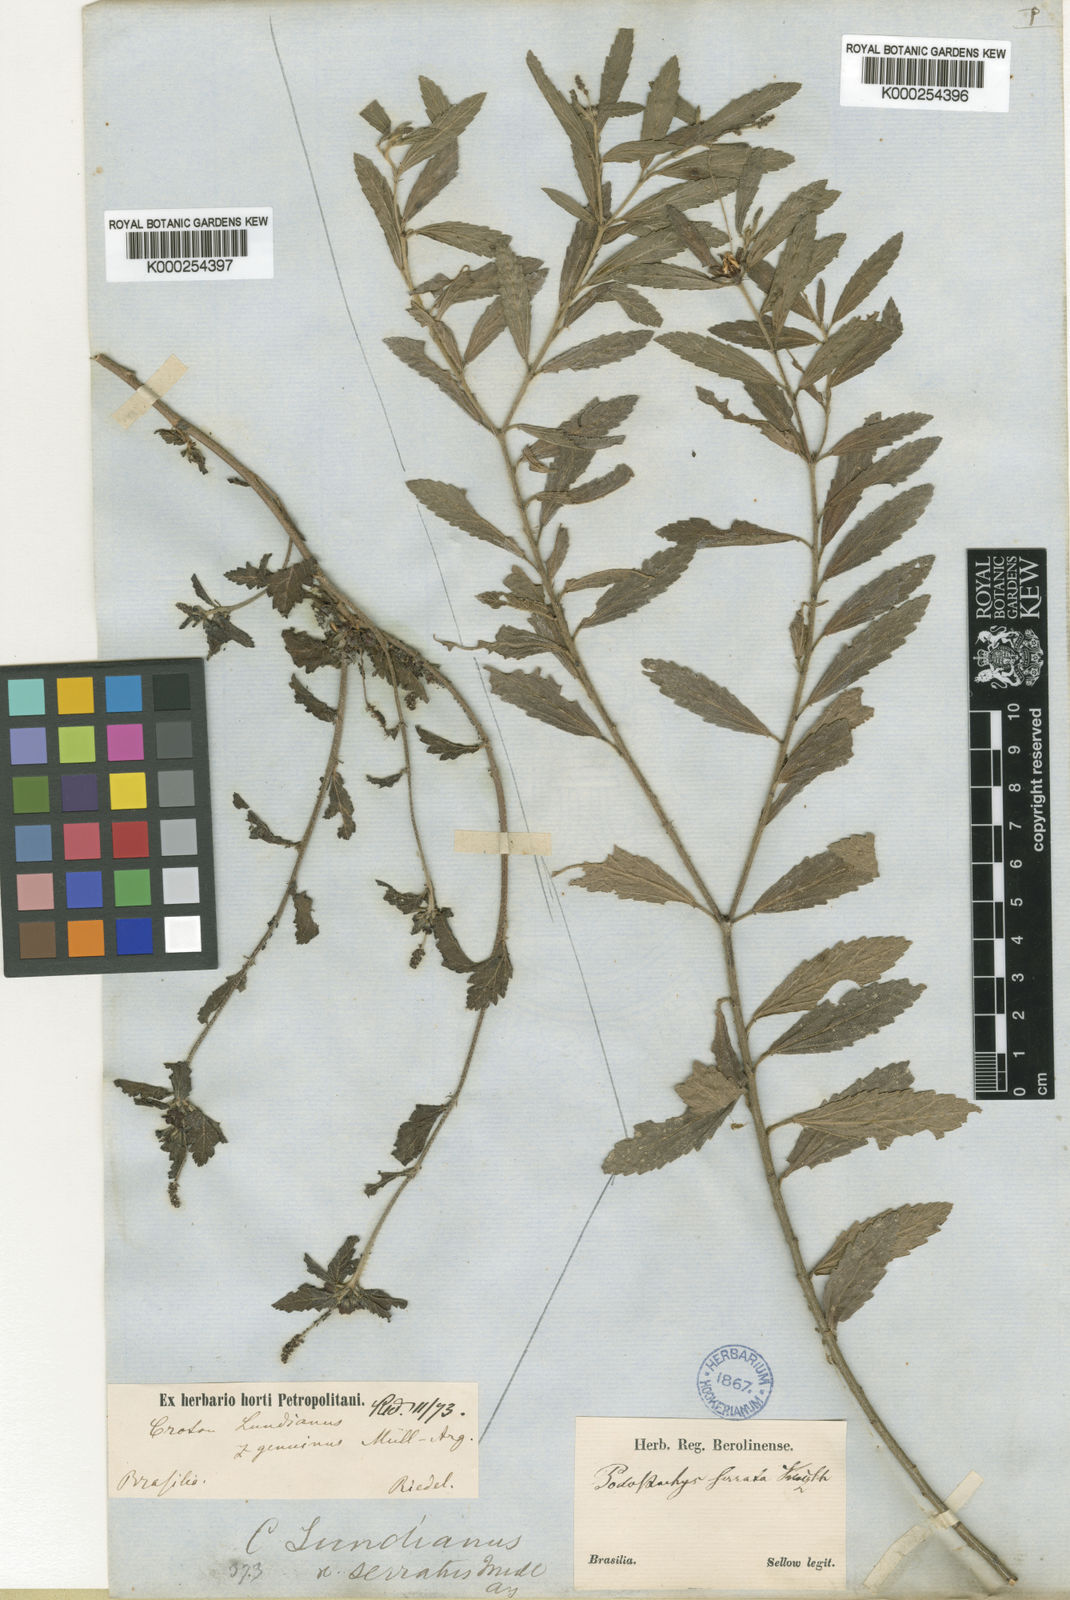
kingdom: Plantae
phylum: Tracheophyta
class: Magnoliopsida
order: Malpighiales
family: Euphorbiaceae
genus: Croton
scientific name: Croton
